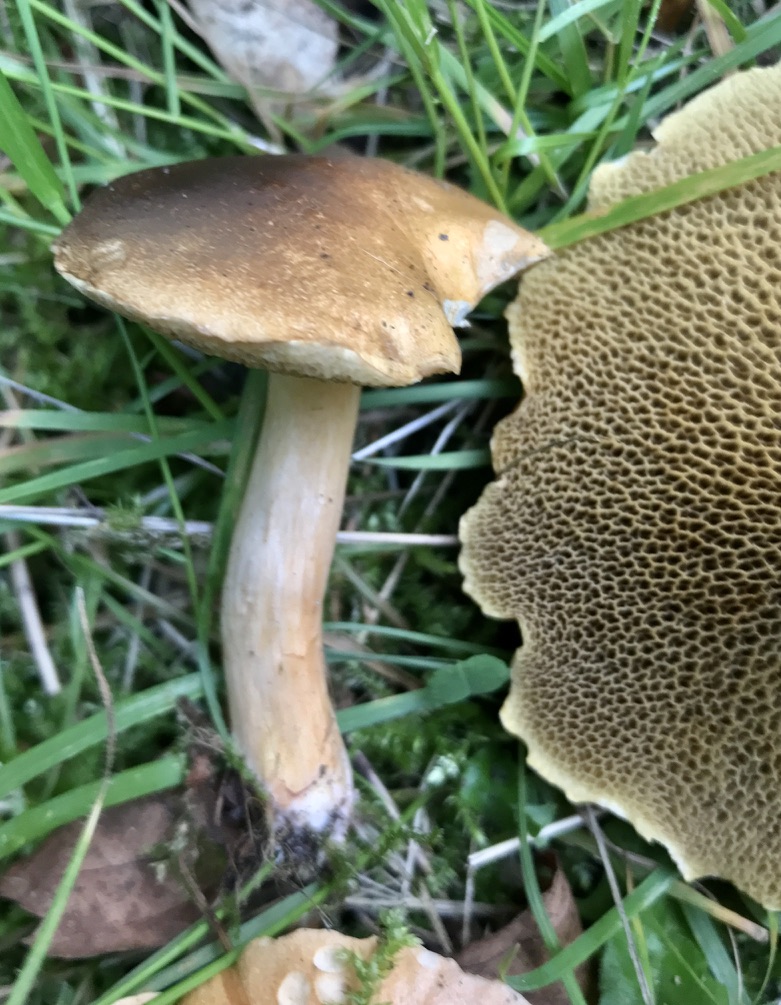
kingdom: Fungi
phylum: Basidiomycota
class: Agaricomycetes
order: Boletales
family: Suillaceae
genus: Suillus
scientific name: Suillus bovinus
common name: grovporet slimrørhat
